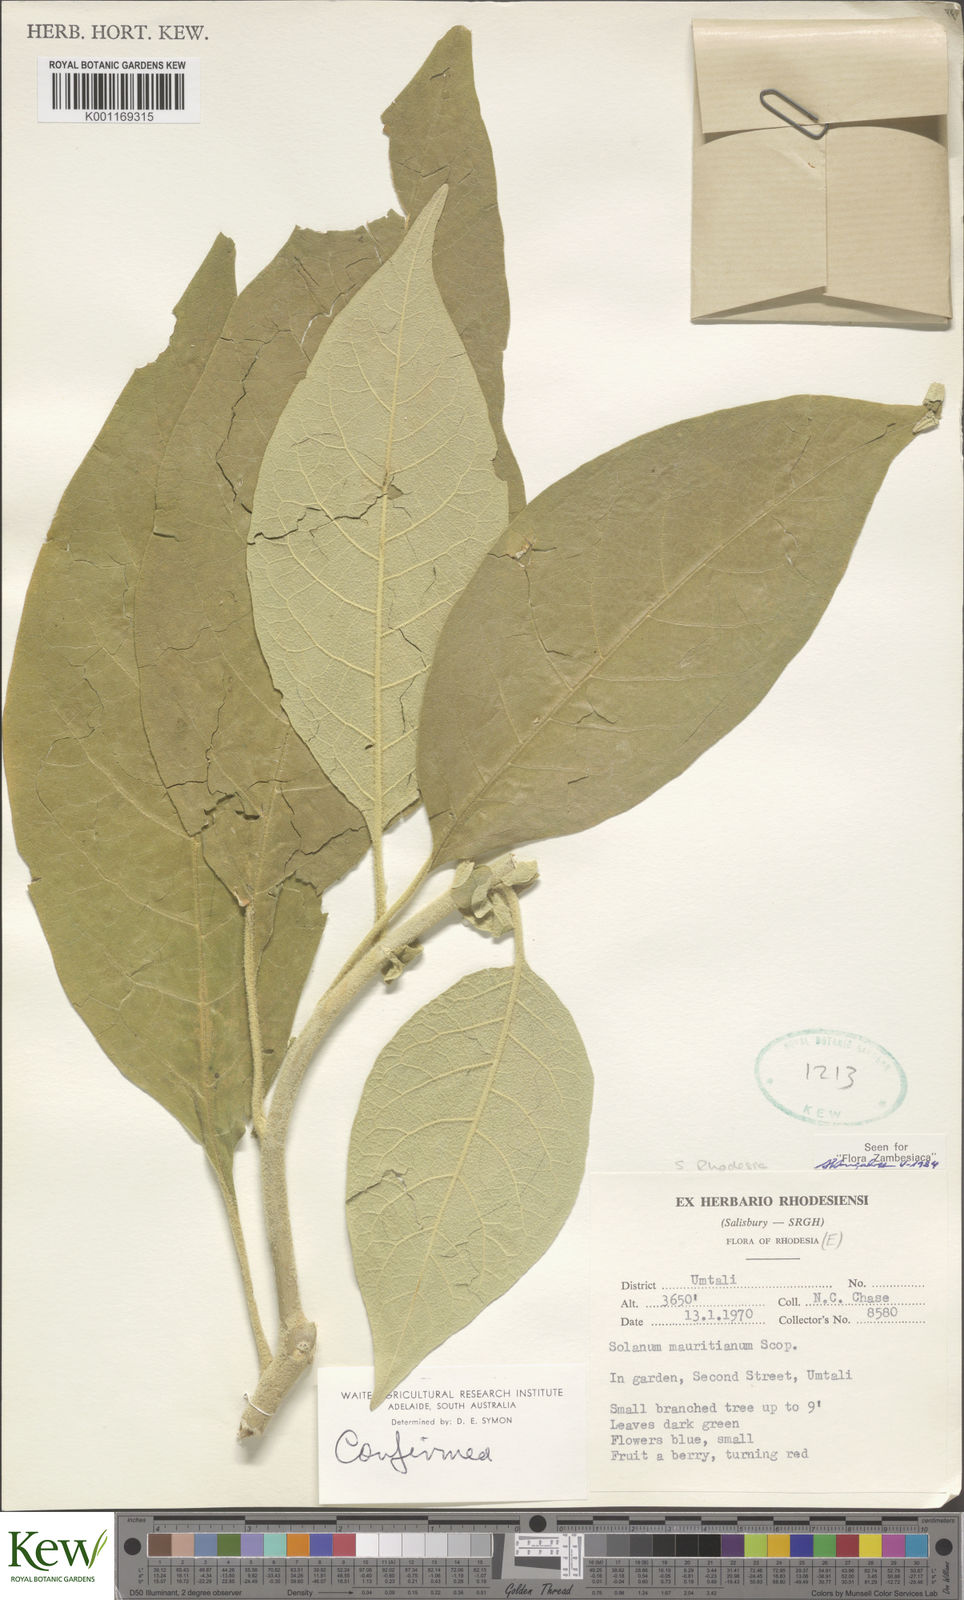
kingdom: Plantae
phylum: Tracheophyta
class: Magnoliopsida
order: Solanales
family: Solanaceae
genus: Solanum
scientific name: Solanum mauritianum
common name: Earleaf nightshade
